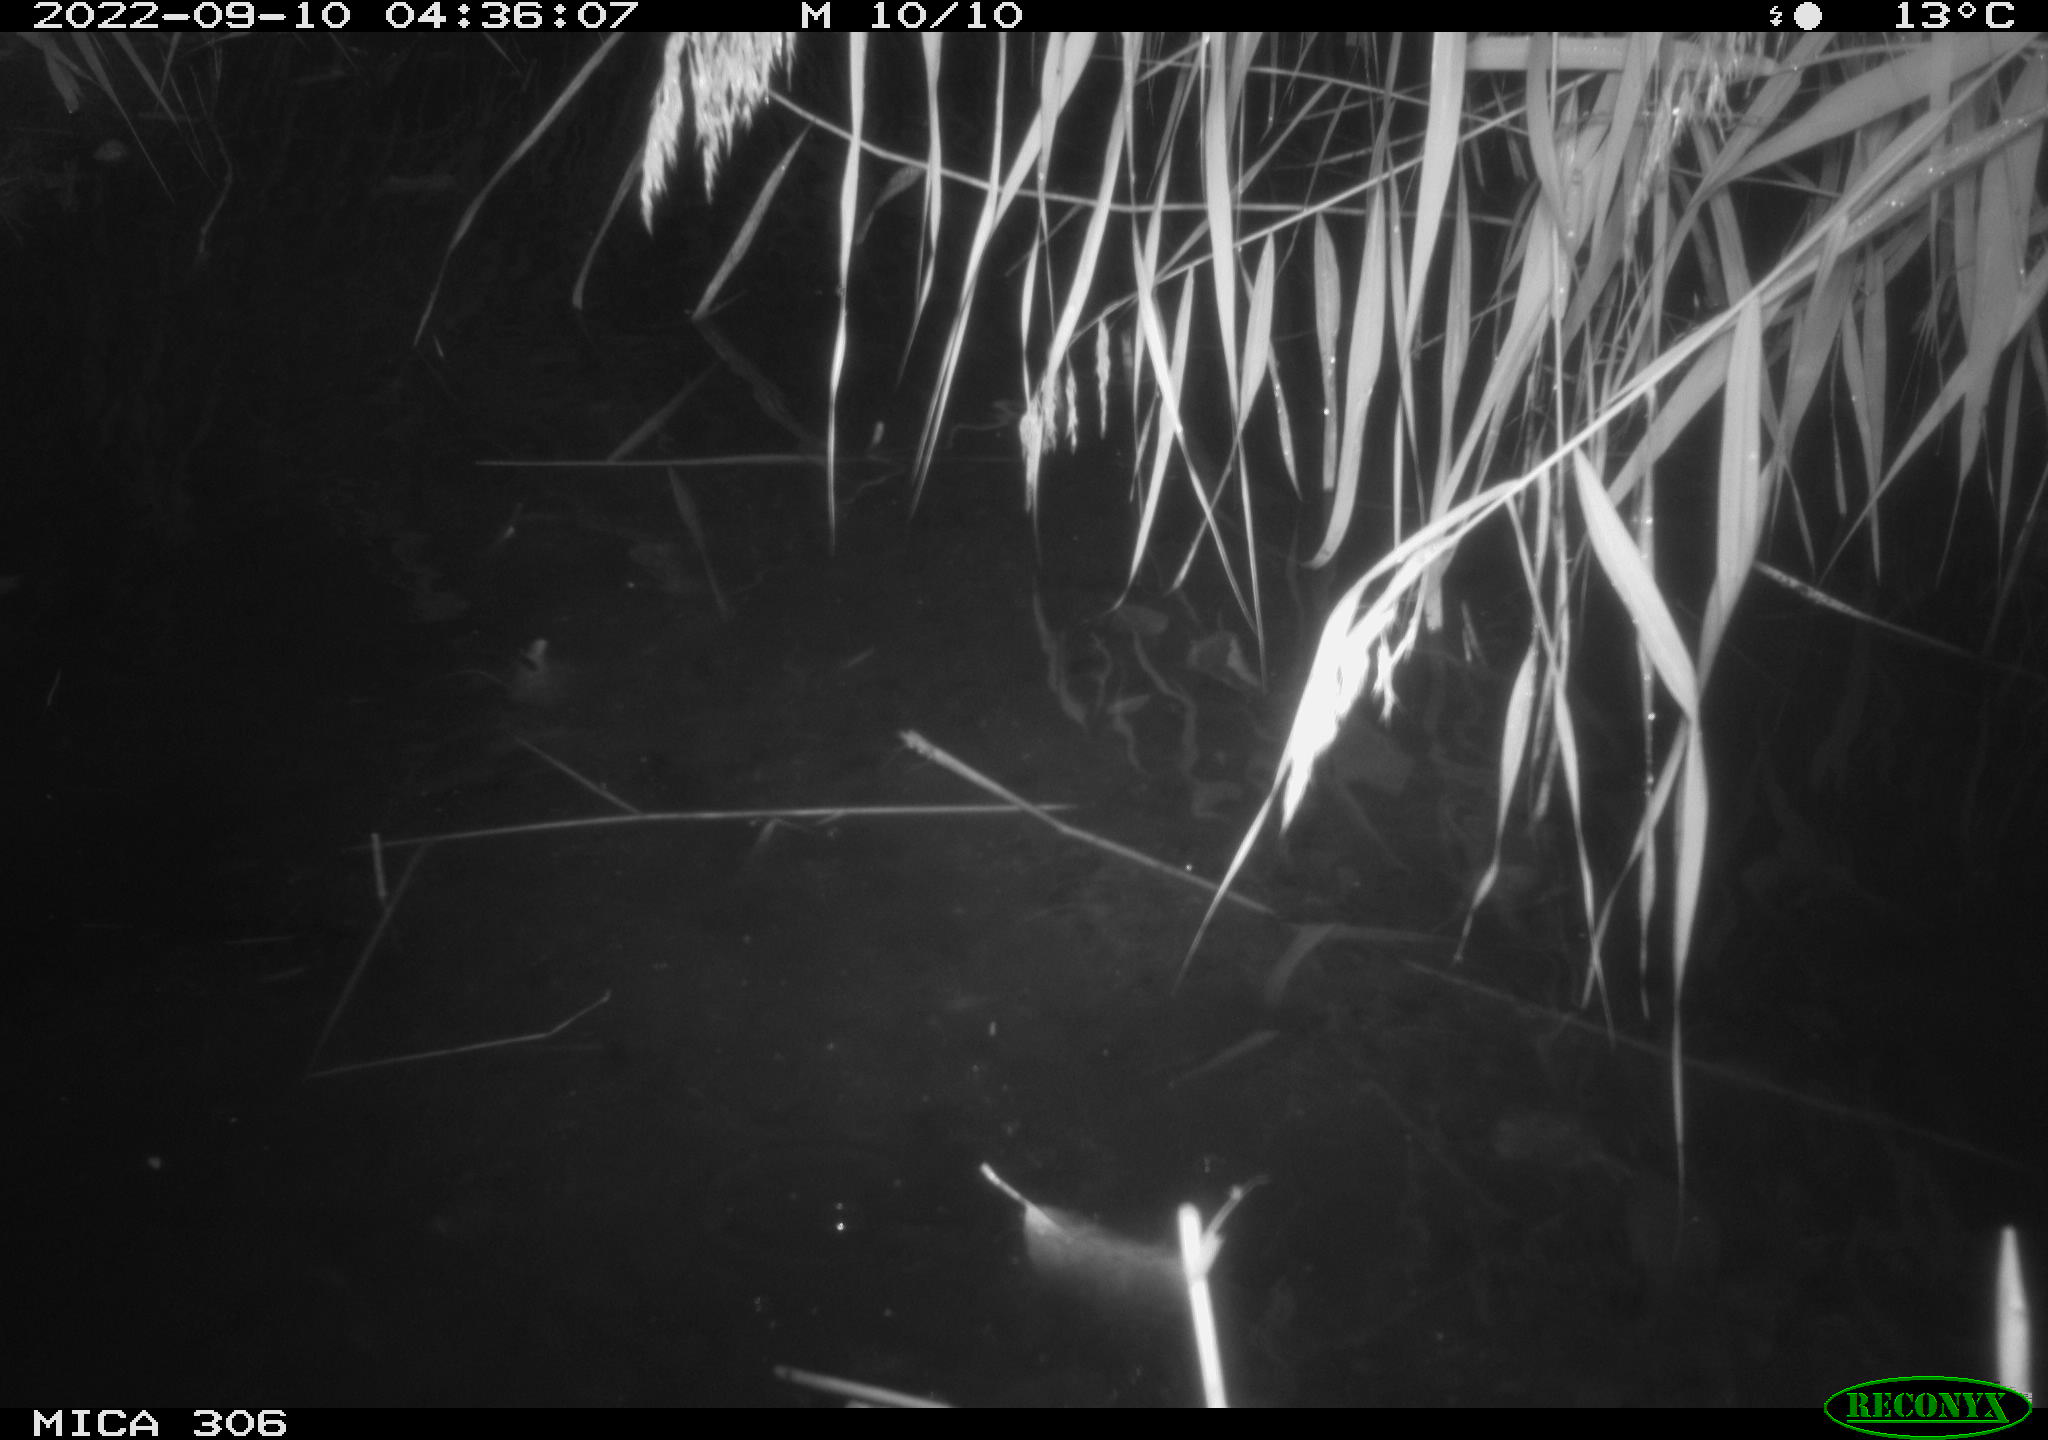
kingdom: Animalia
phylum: Chordata
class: Mammalia
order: Rodentia
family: Muridae
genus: Rattus
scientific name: Rattus norvegicus
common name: Brown rat
